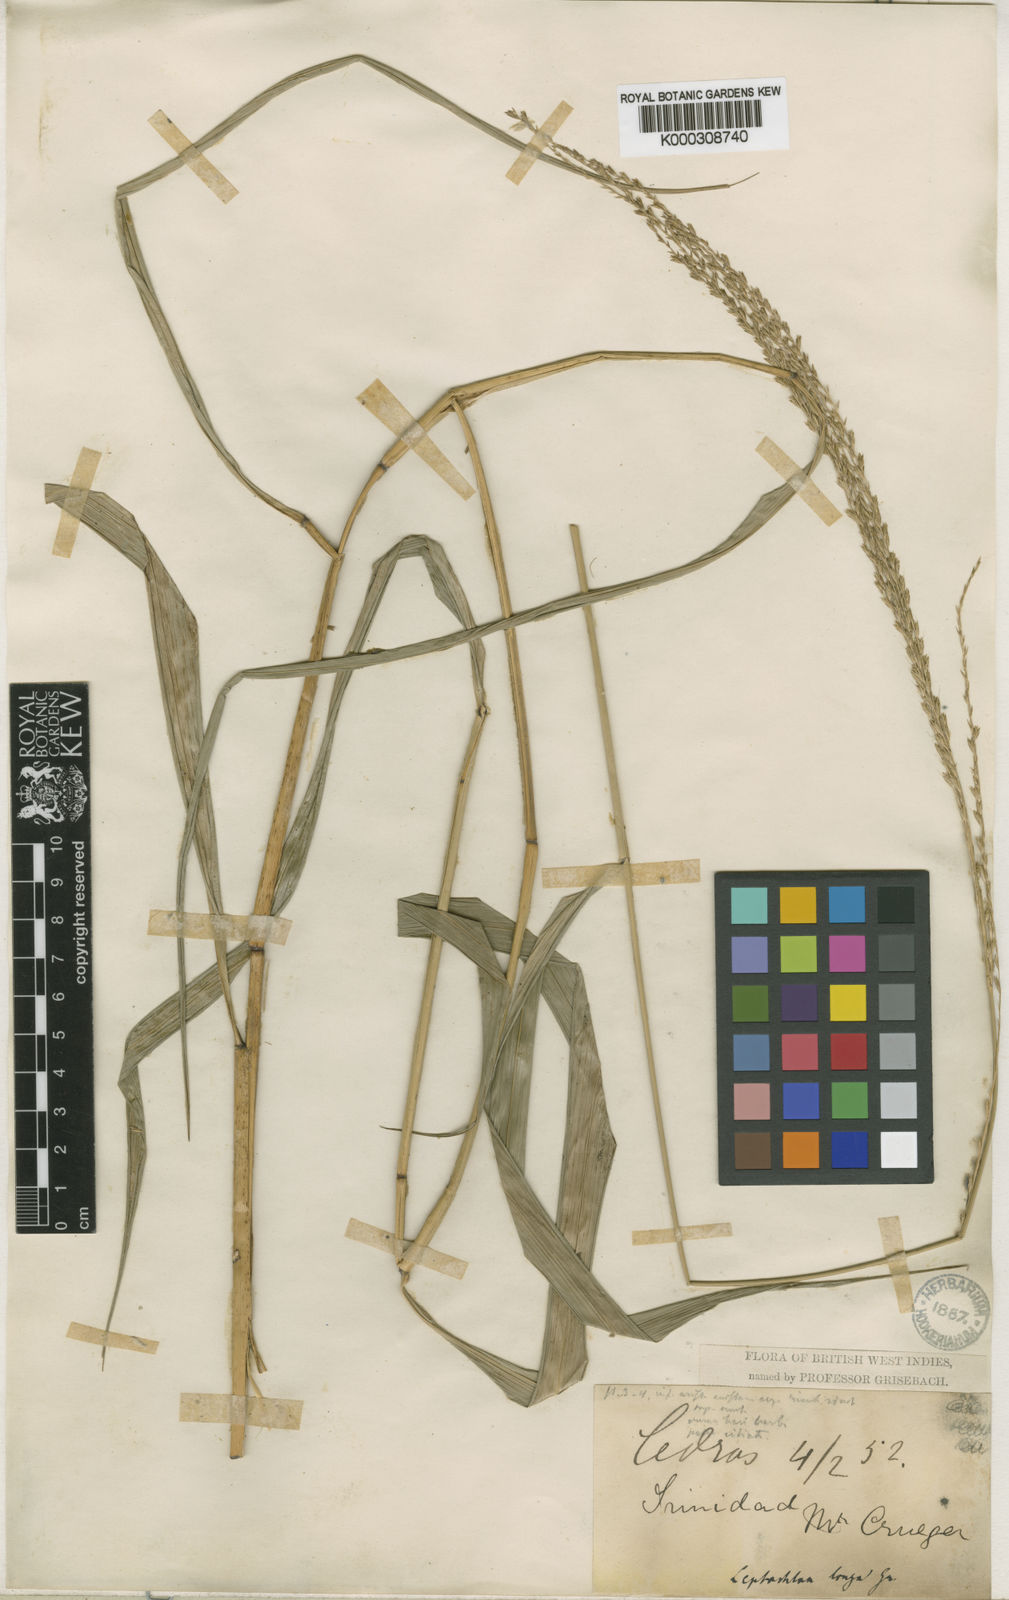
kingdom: Plantae
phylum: Tracheophyta
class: Liliopsida
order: Poales
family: Poaceae
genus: Leptochloa
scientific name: Leptochloa longa
